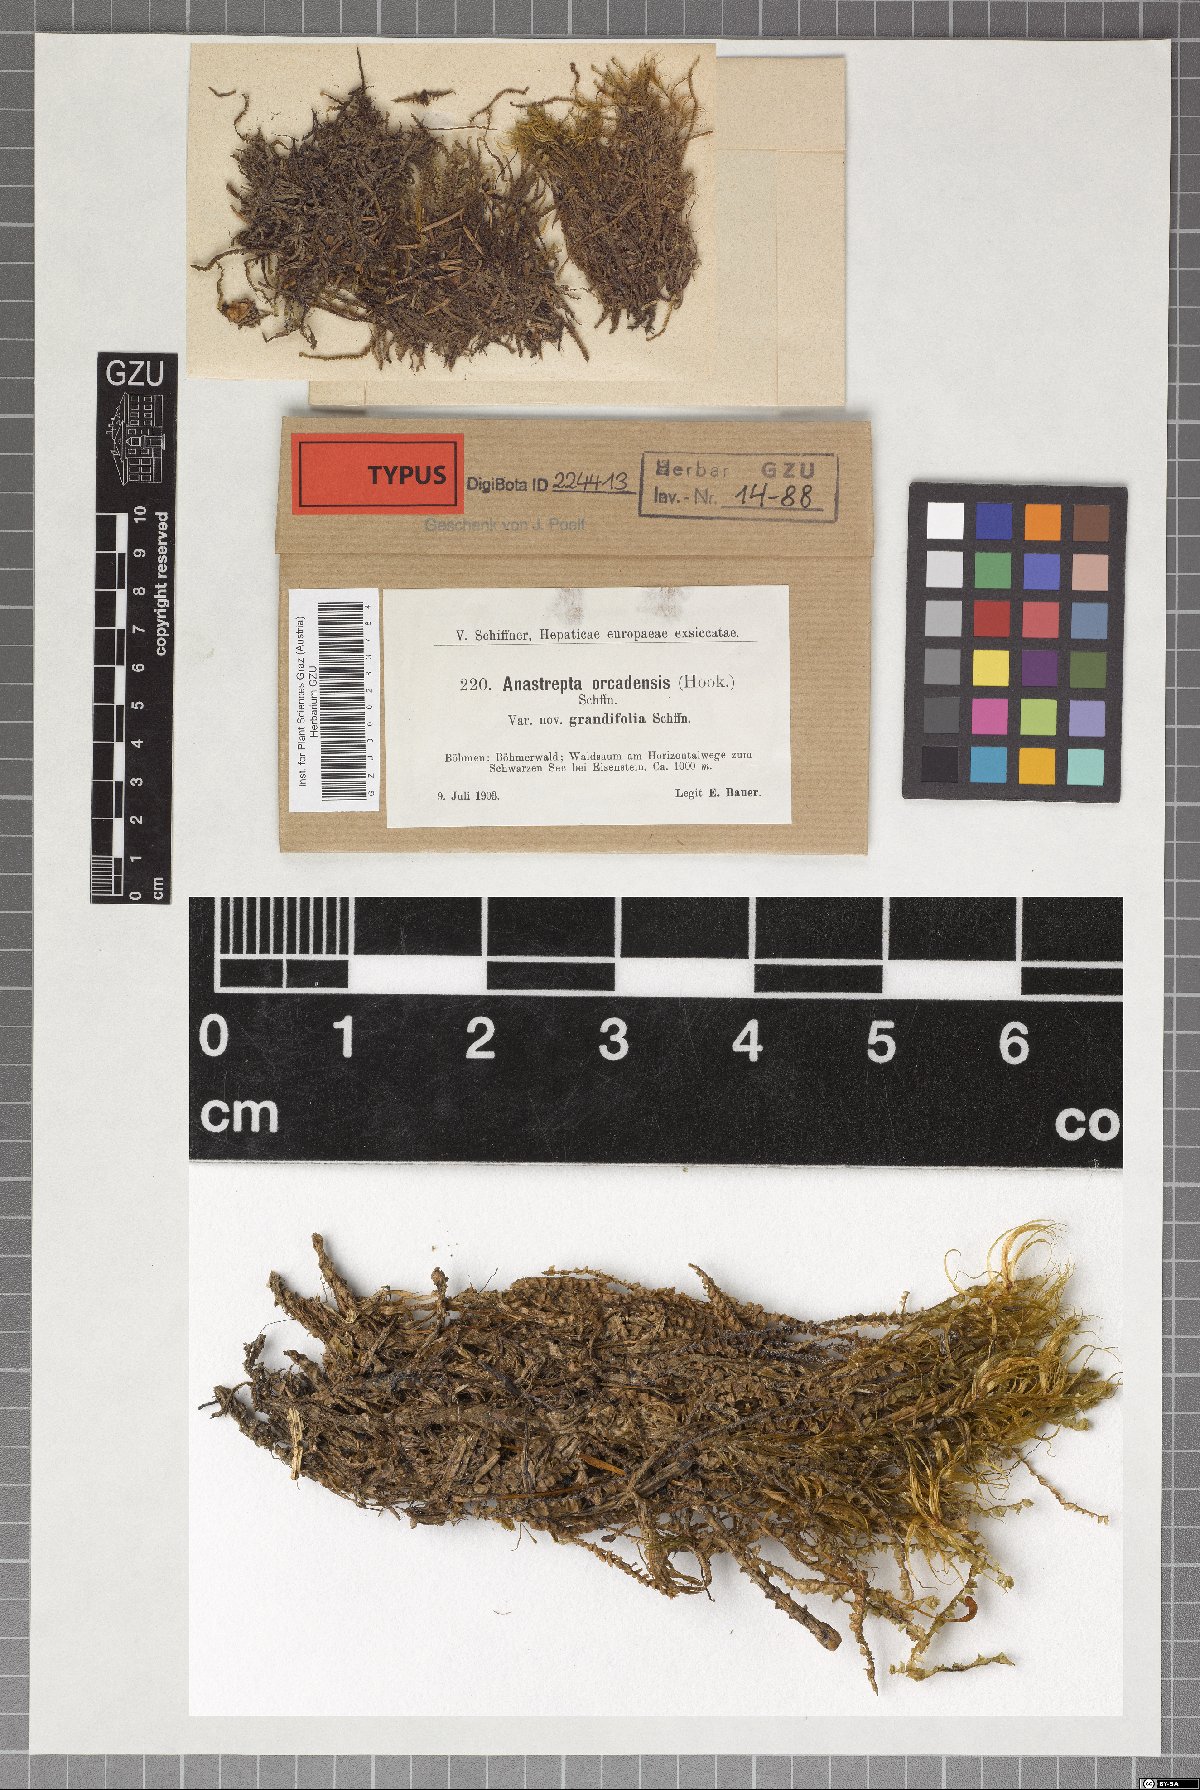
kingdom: Plantae
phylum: Marchantiophyta
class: Jungermanniopsida
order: Jungermanniales
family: Anastrophyllaceae
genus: Anastrepta
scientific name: Anastrepta orcadensis
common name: Orkney notchwort
